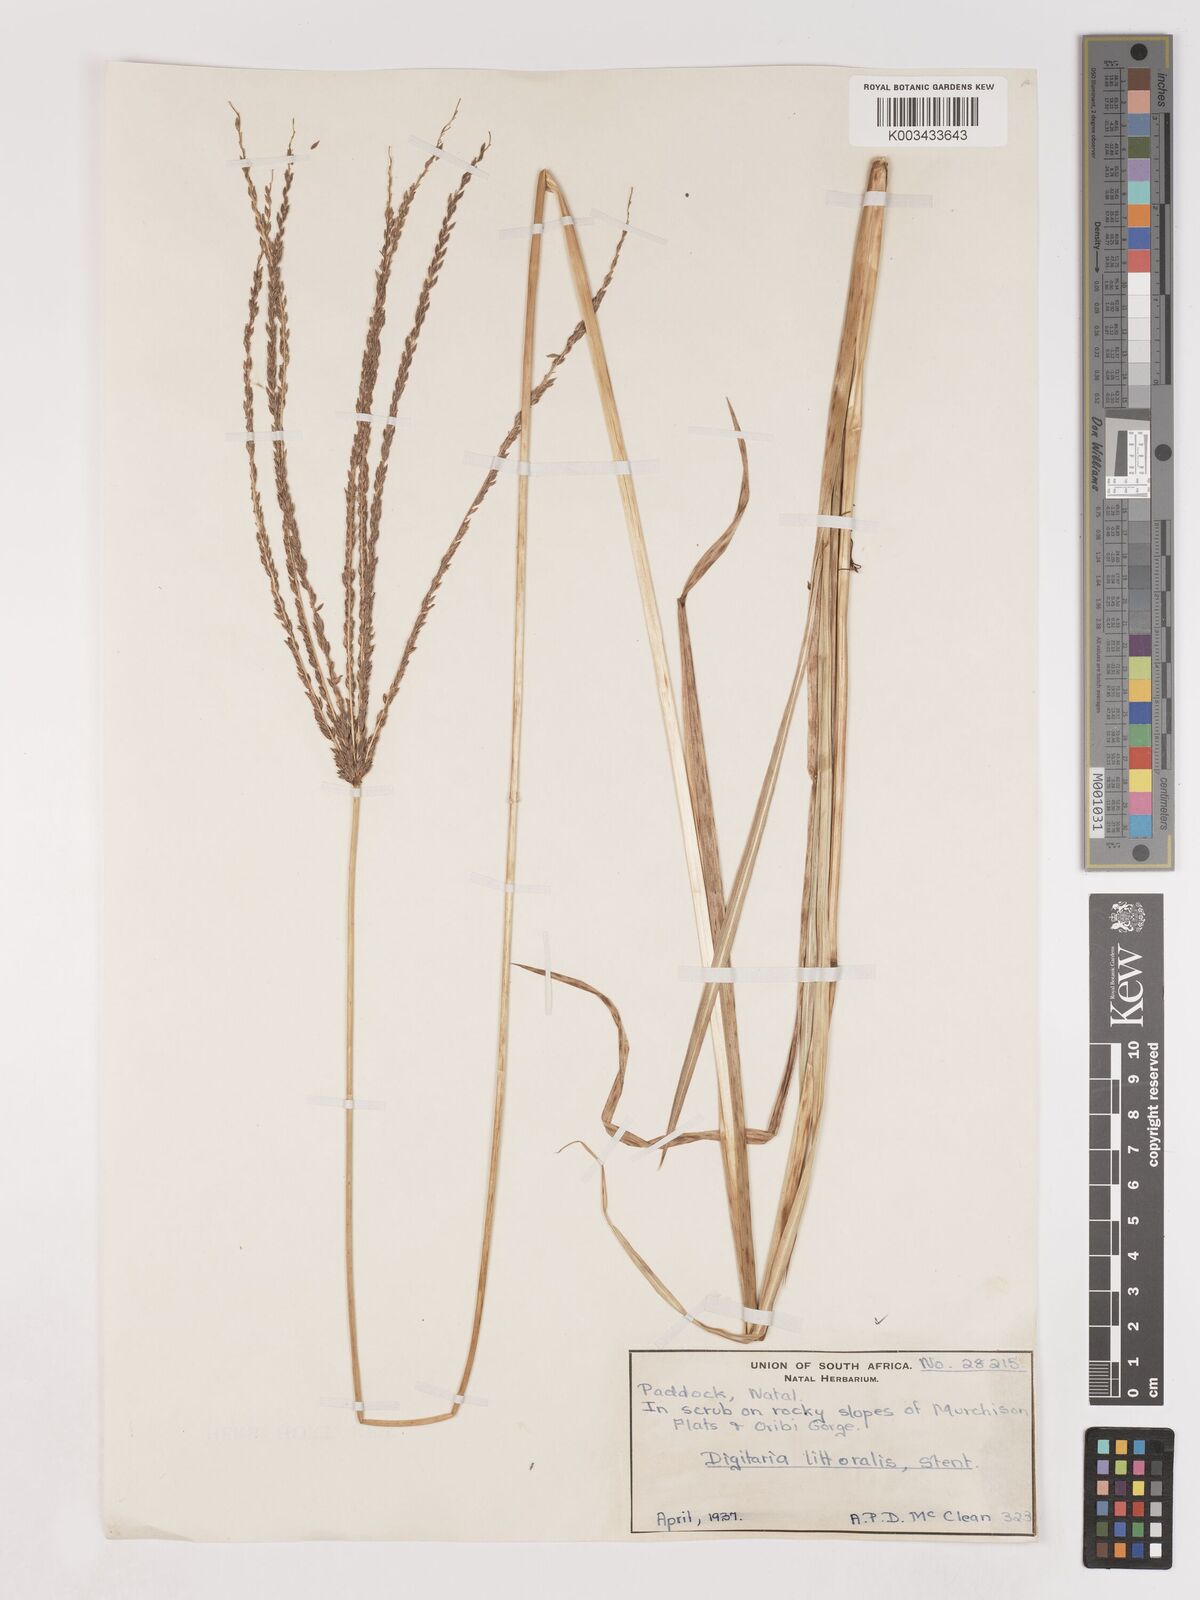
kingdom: Plantae
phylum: Tracheophyta
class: Liliopsida
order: Poales
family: Poaceae
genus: Digitaria
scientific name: Digitaria natalensis
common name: Coast finger grass
